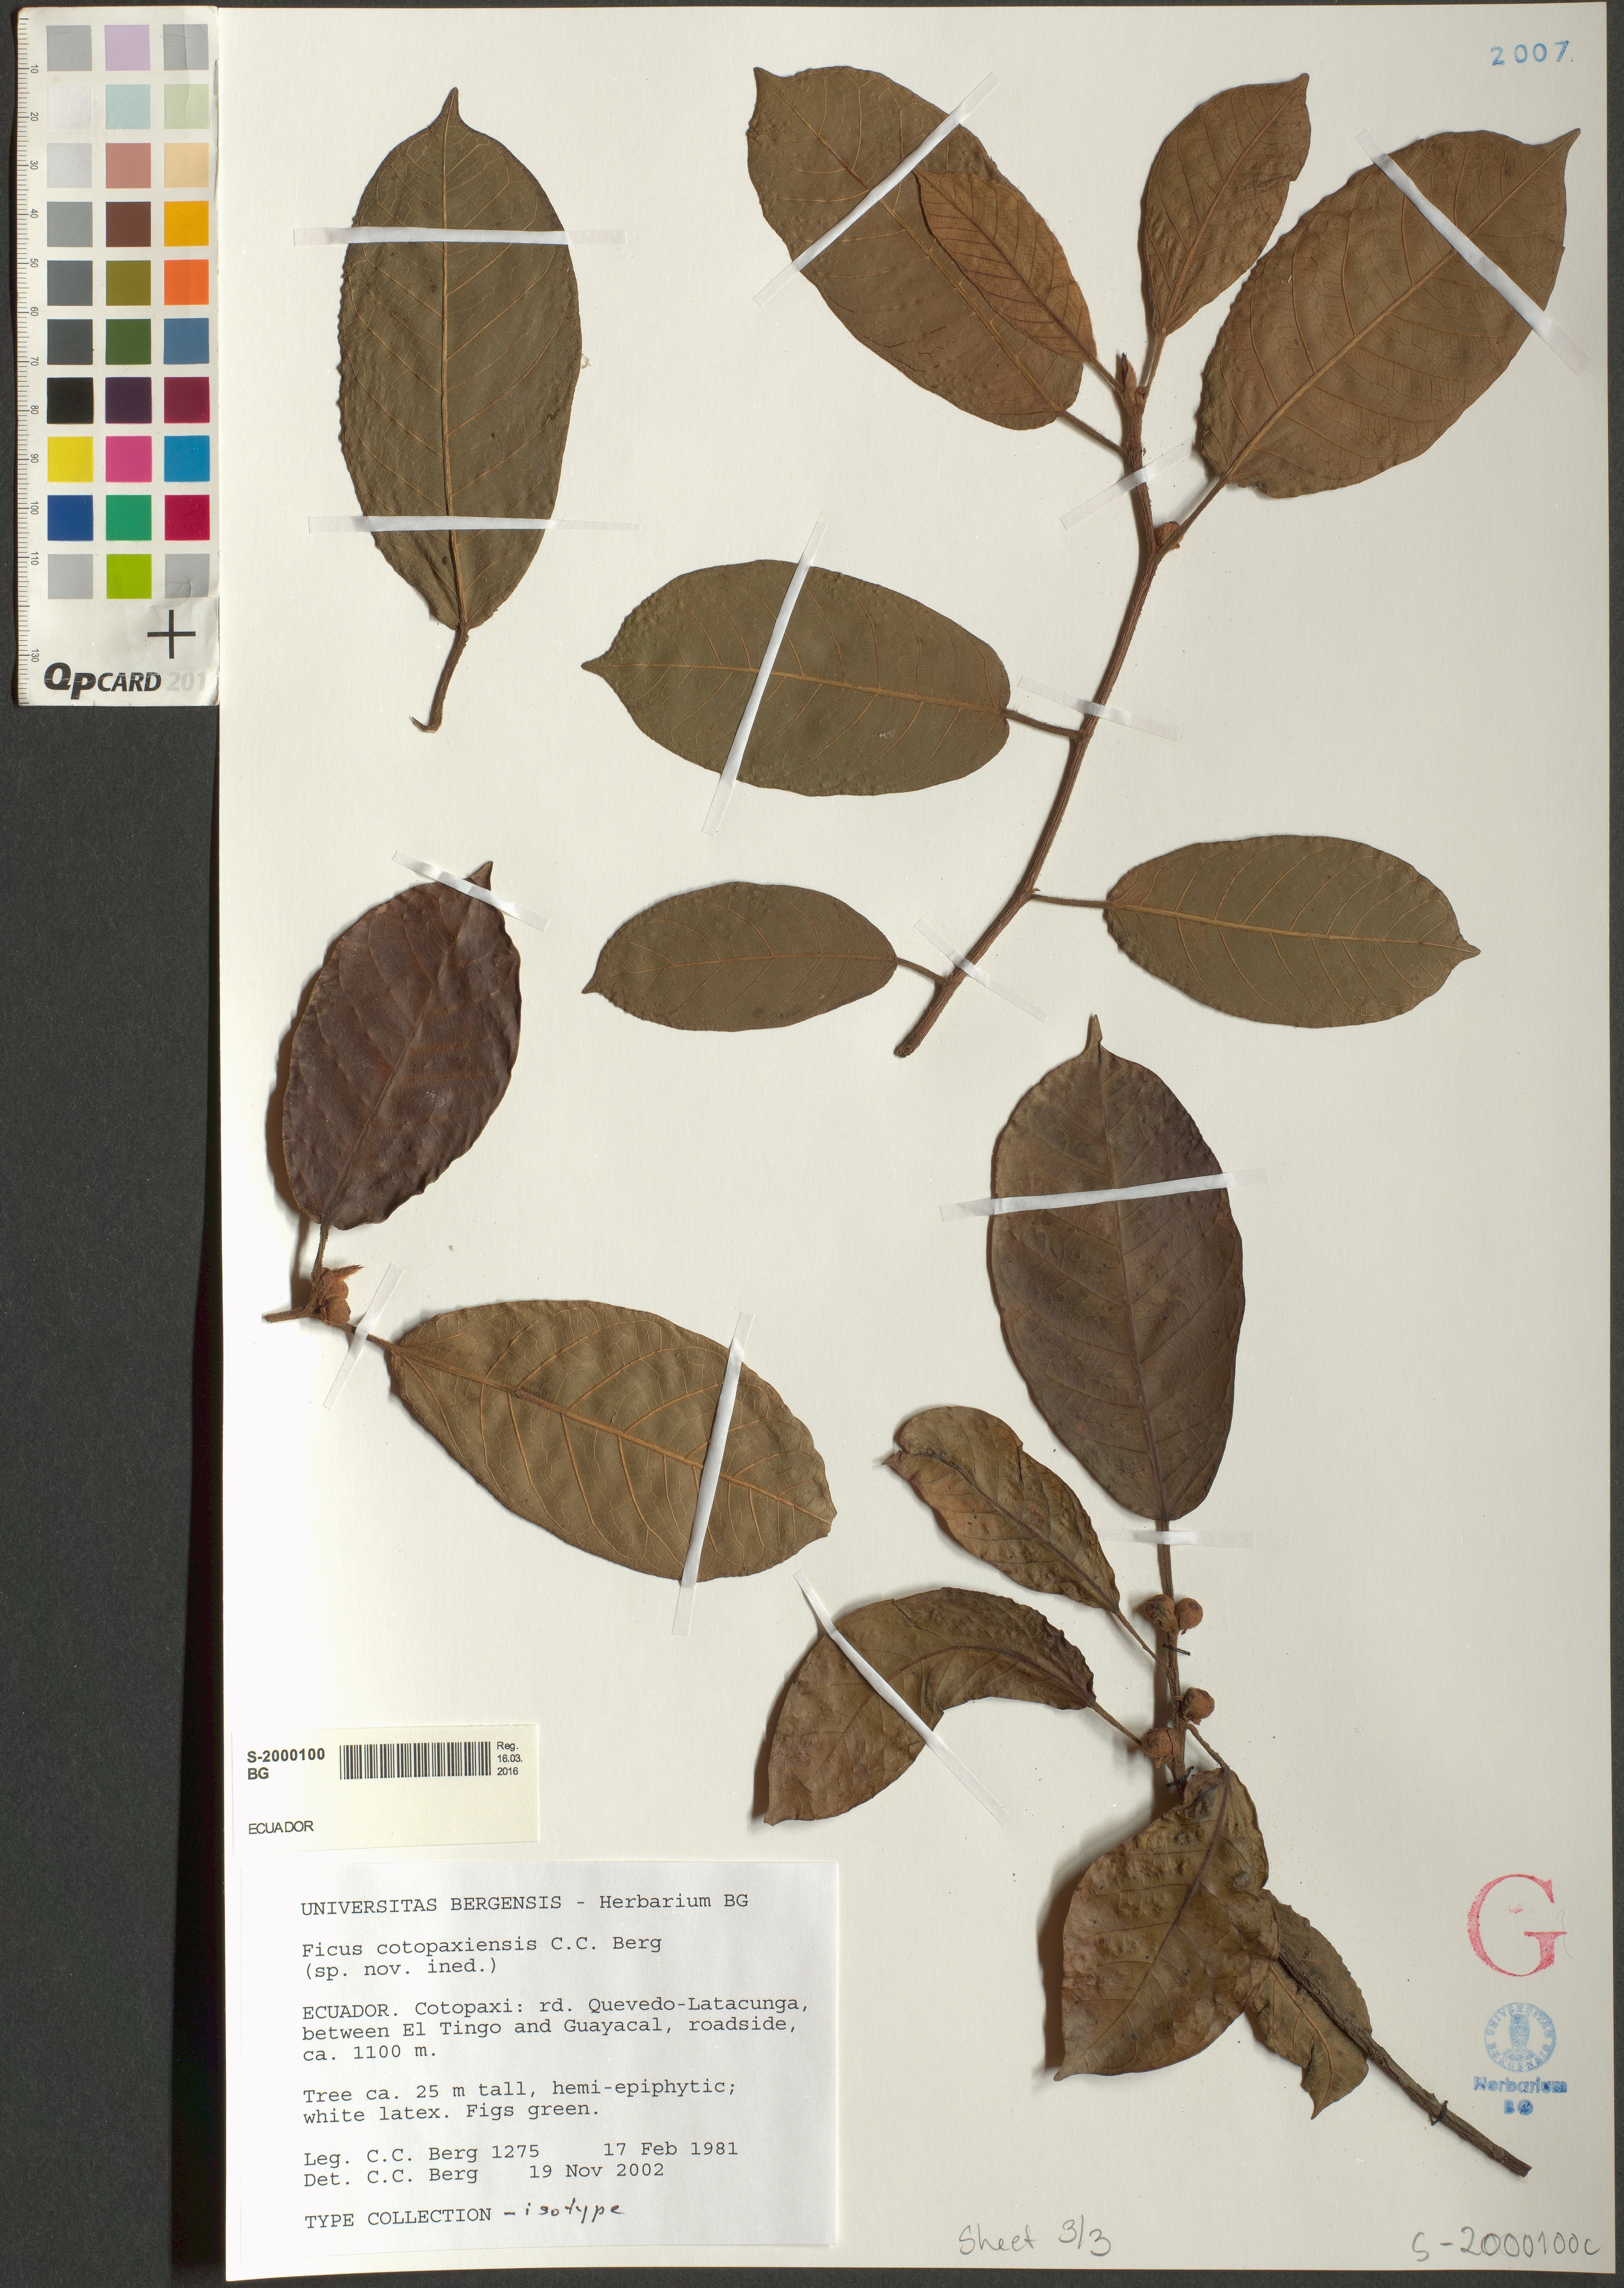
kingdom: Plantae
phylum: Tracheophyta
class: Magnoliopsida
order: Rosales
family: Moraceae
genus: Ficus
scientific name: Ficus cotopaxiensis
